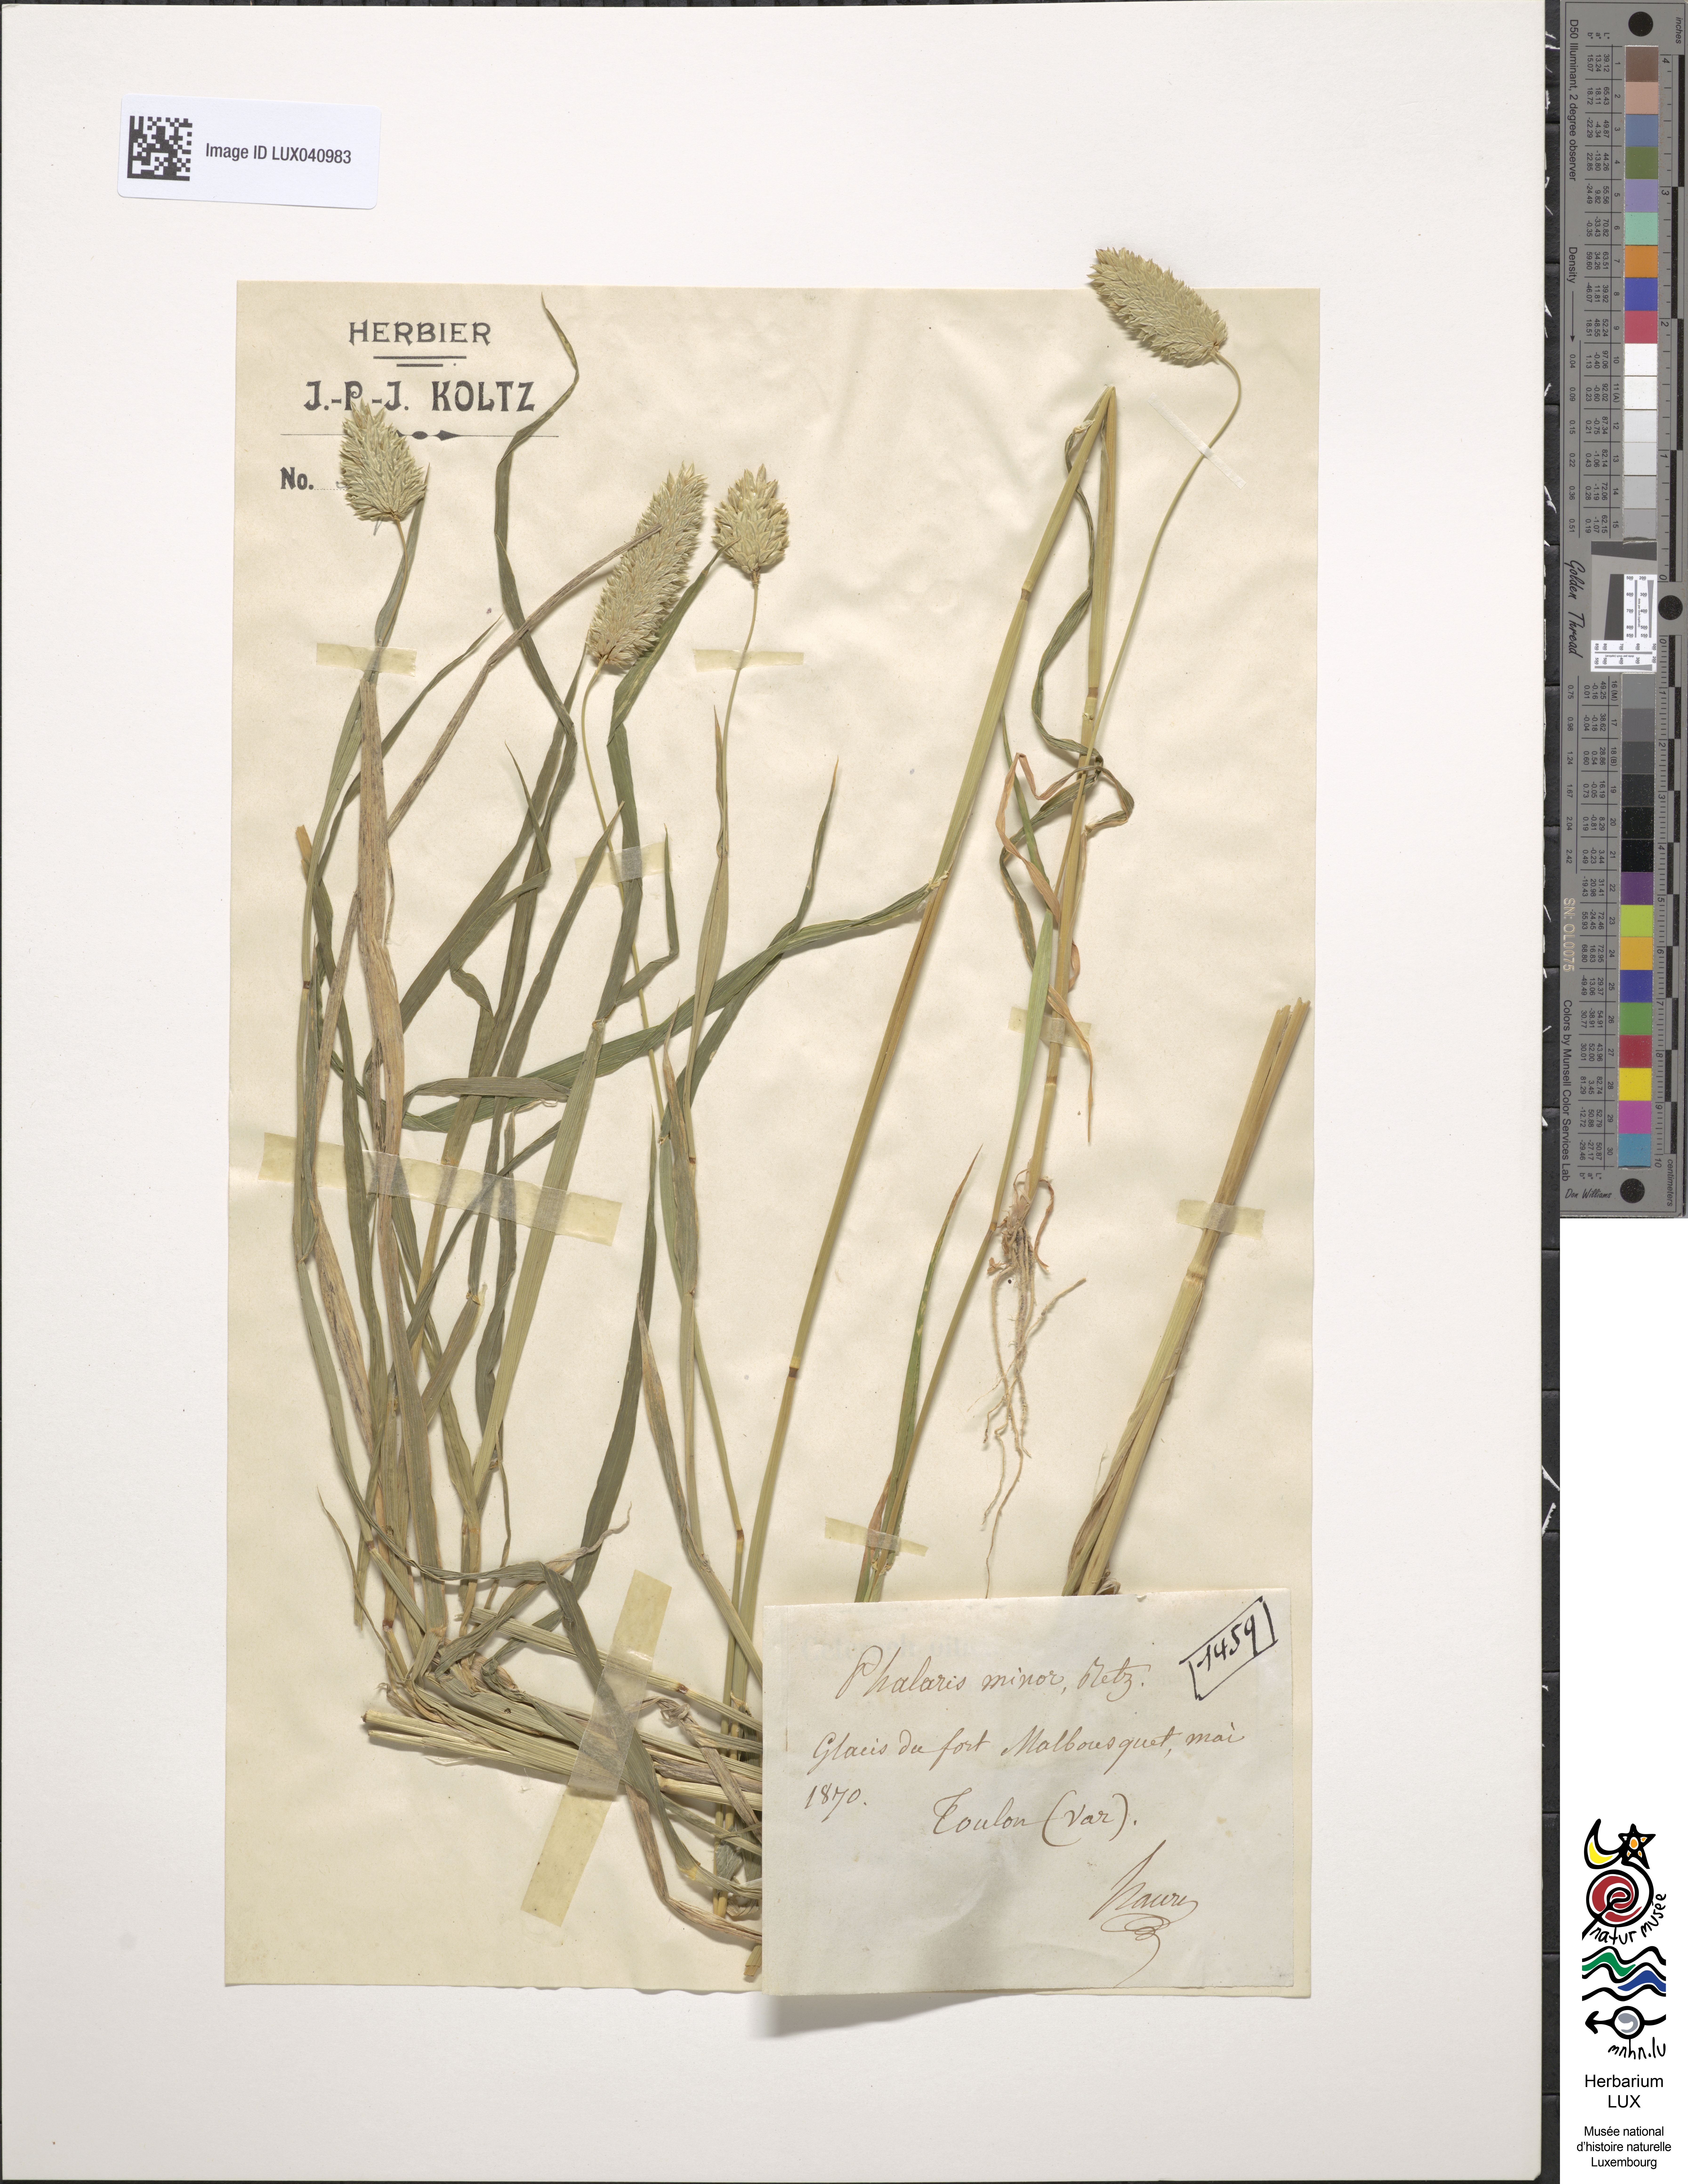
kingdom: Plantae
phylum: Tracheophyta
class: Liliopsida
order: Poales
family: Poaceae
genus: Phalaris
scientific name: Phalaris minor
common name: Littleseed canarygrass
